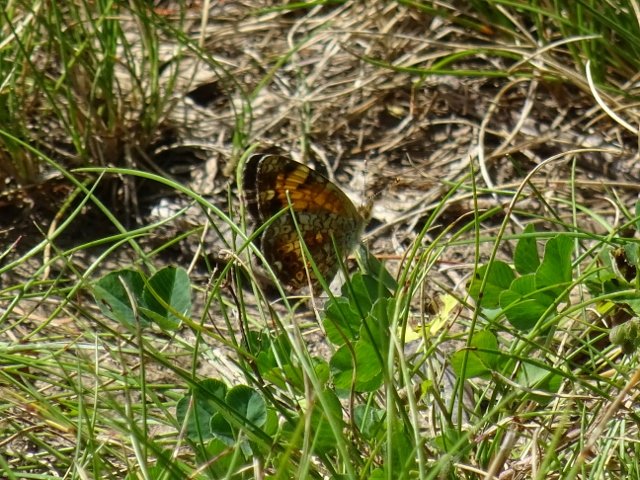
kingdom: Animalia
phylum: Arthropoda
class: Insecta
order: Lepidoptera
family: Nymphalidae
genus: Phyciodes
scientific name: Phyciodes tharos
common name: Northern Crescent
